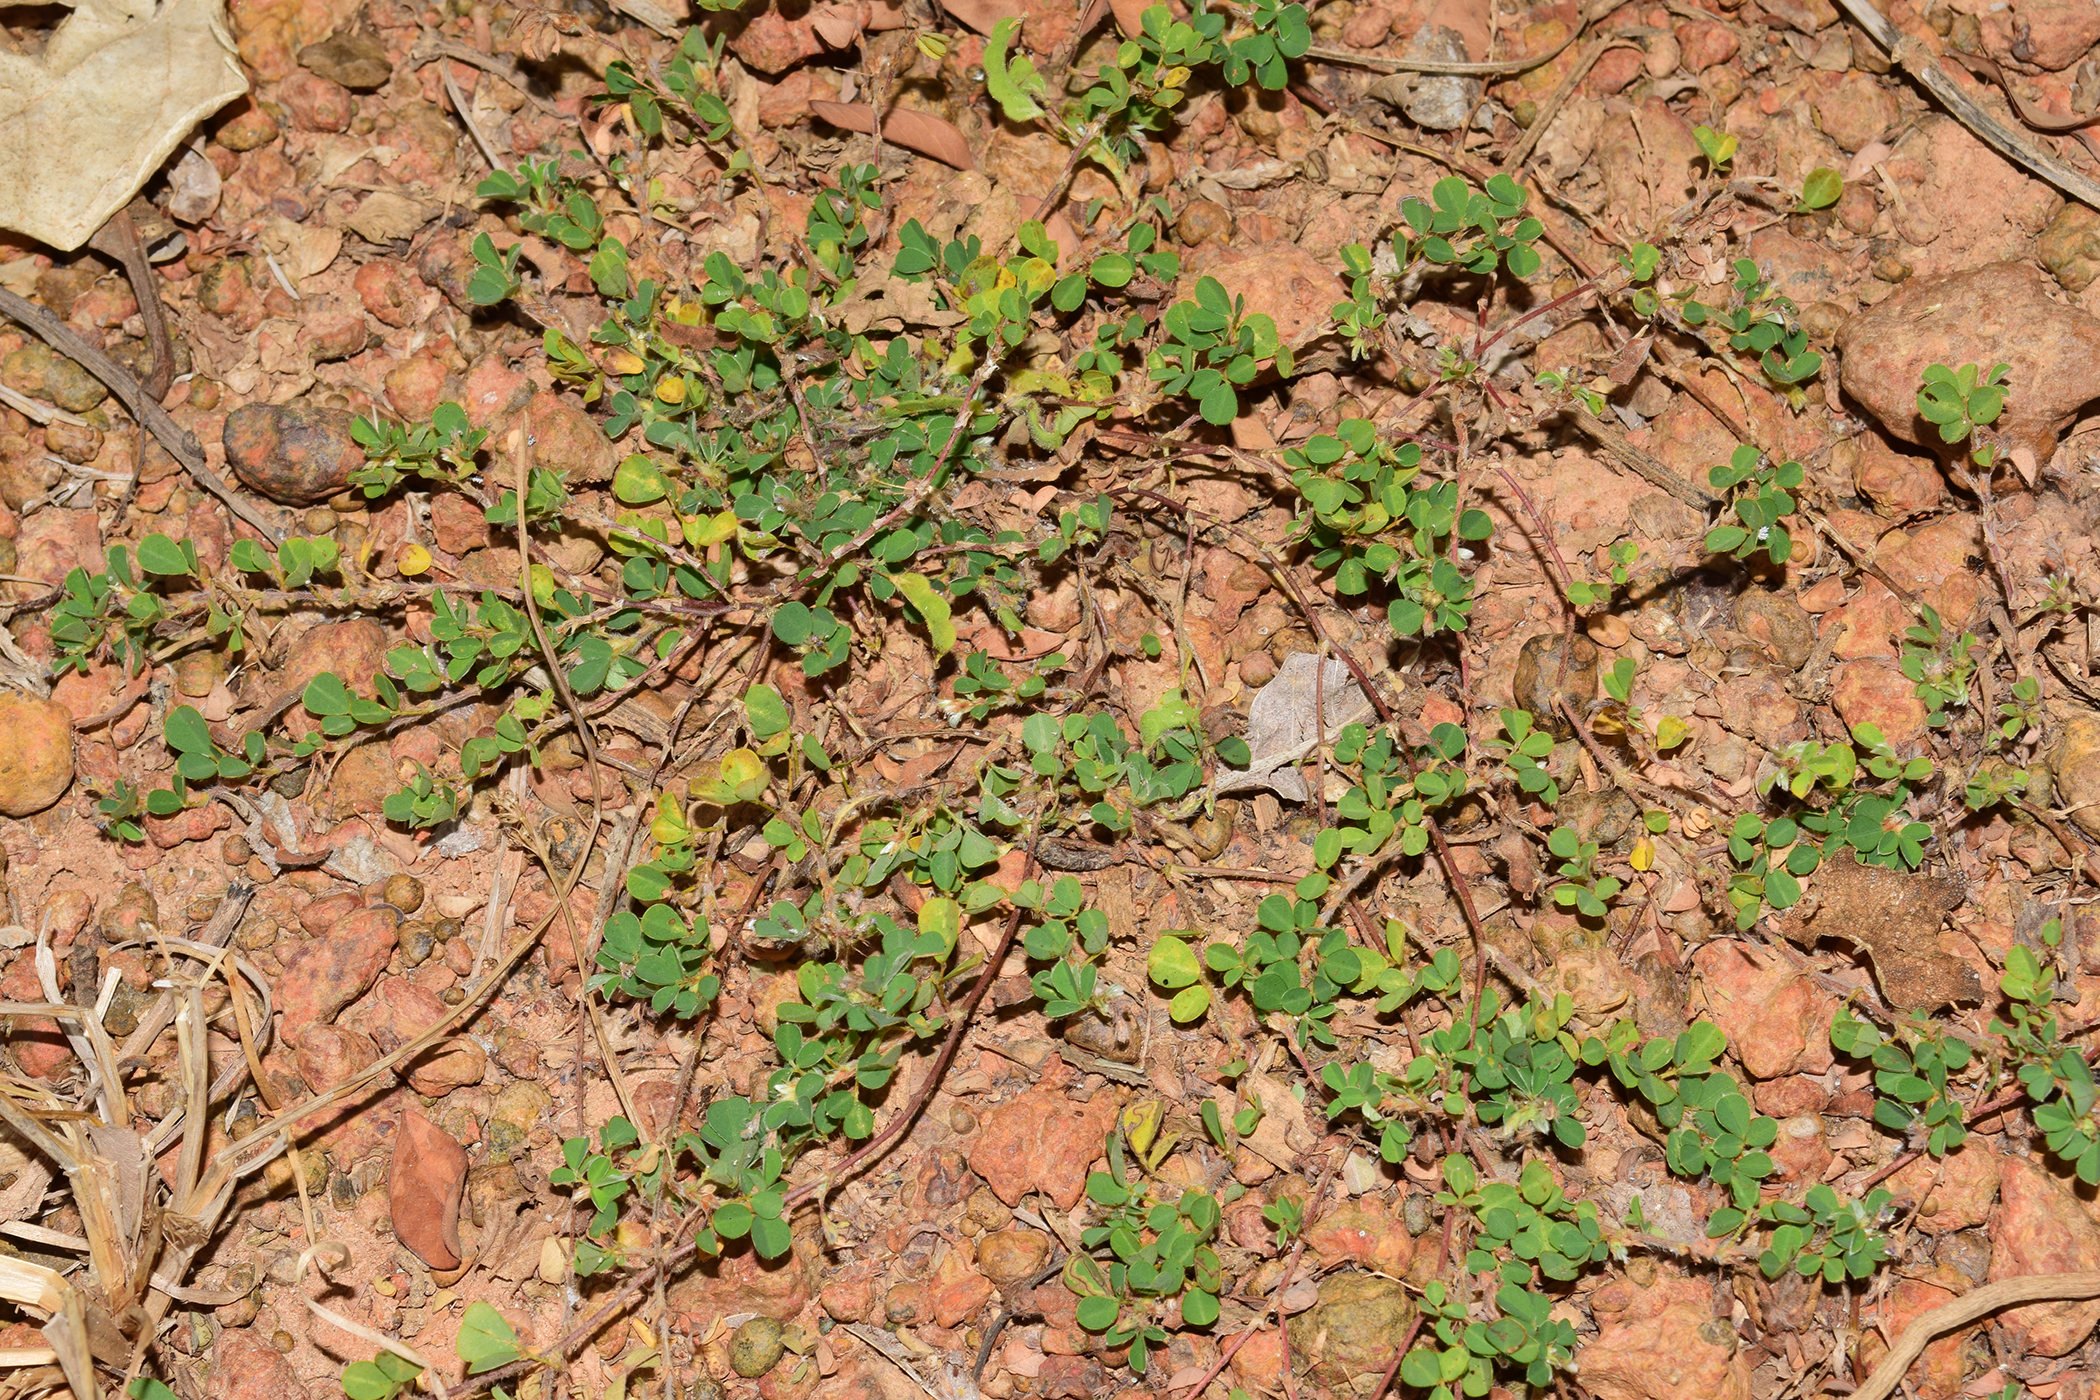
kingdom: Plantae
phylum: Tracheophyta
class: Magnoliopsida
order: Fabales
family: Fabaceae
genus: Grona
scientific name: Grona triflora
